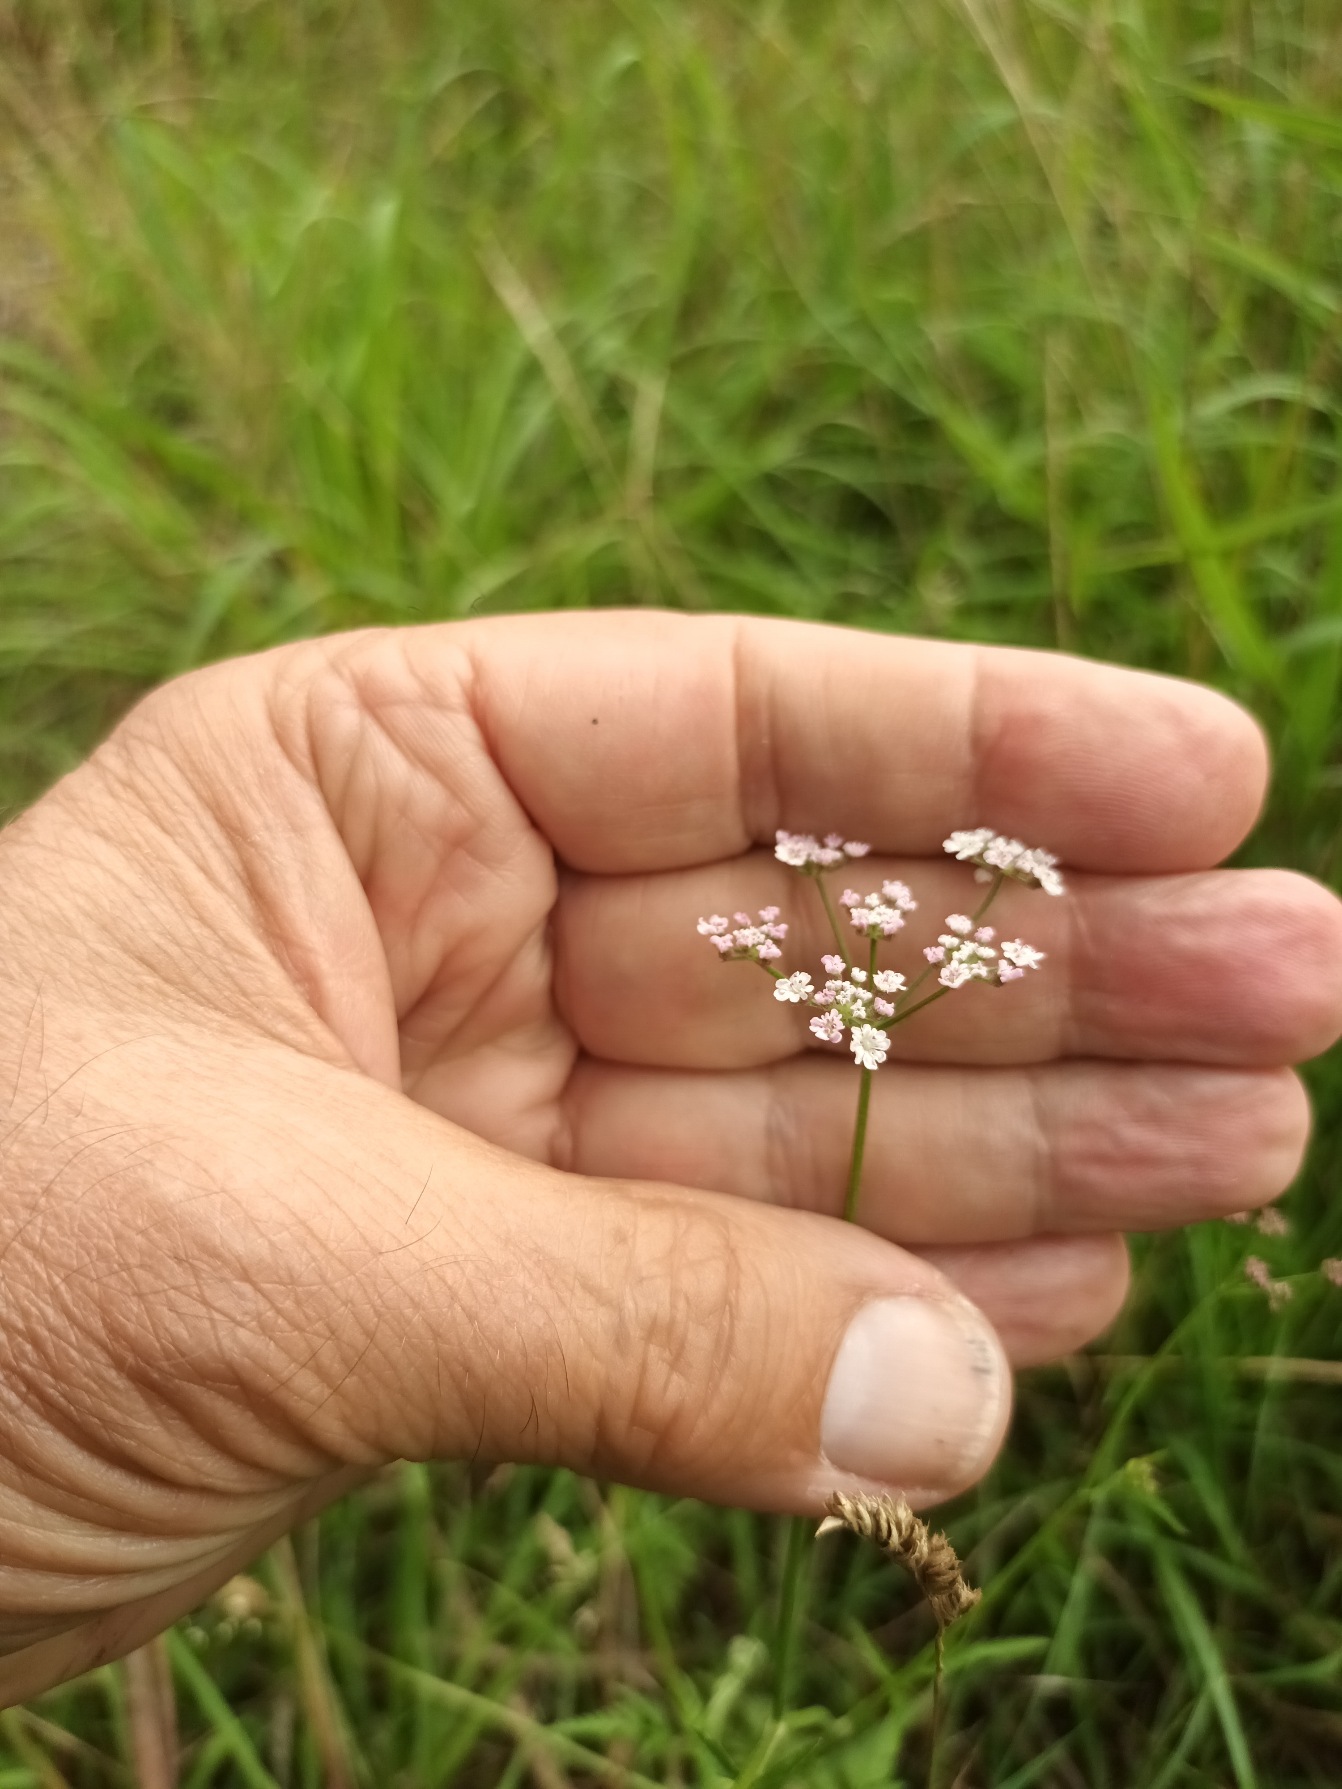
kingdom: Plantae
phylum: Tracheophyta
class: Magnoliopsida
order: Apiales
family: Apiaceae
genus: Torilis
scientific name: Torilis japonica
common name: Hvas randfrø
